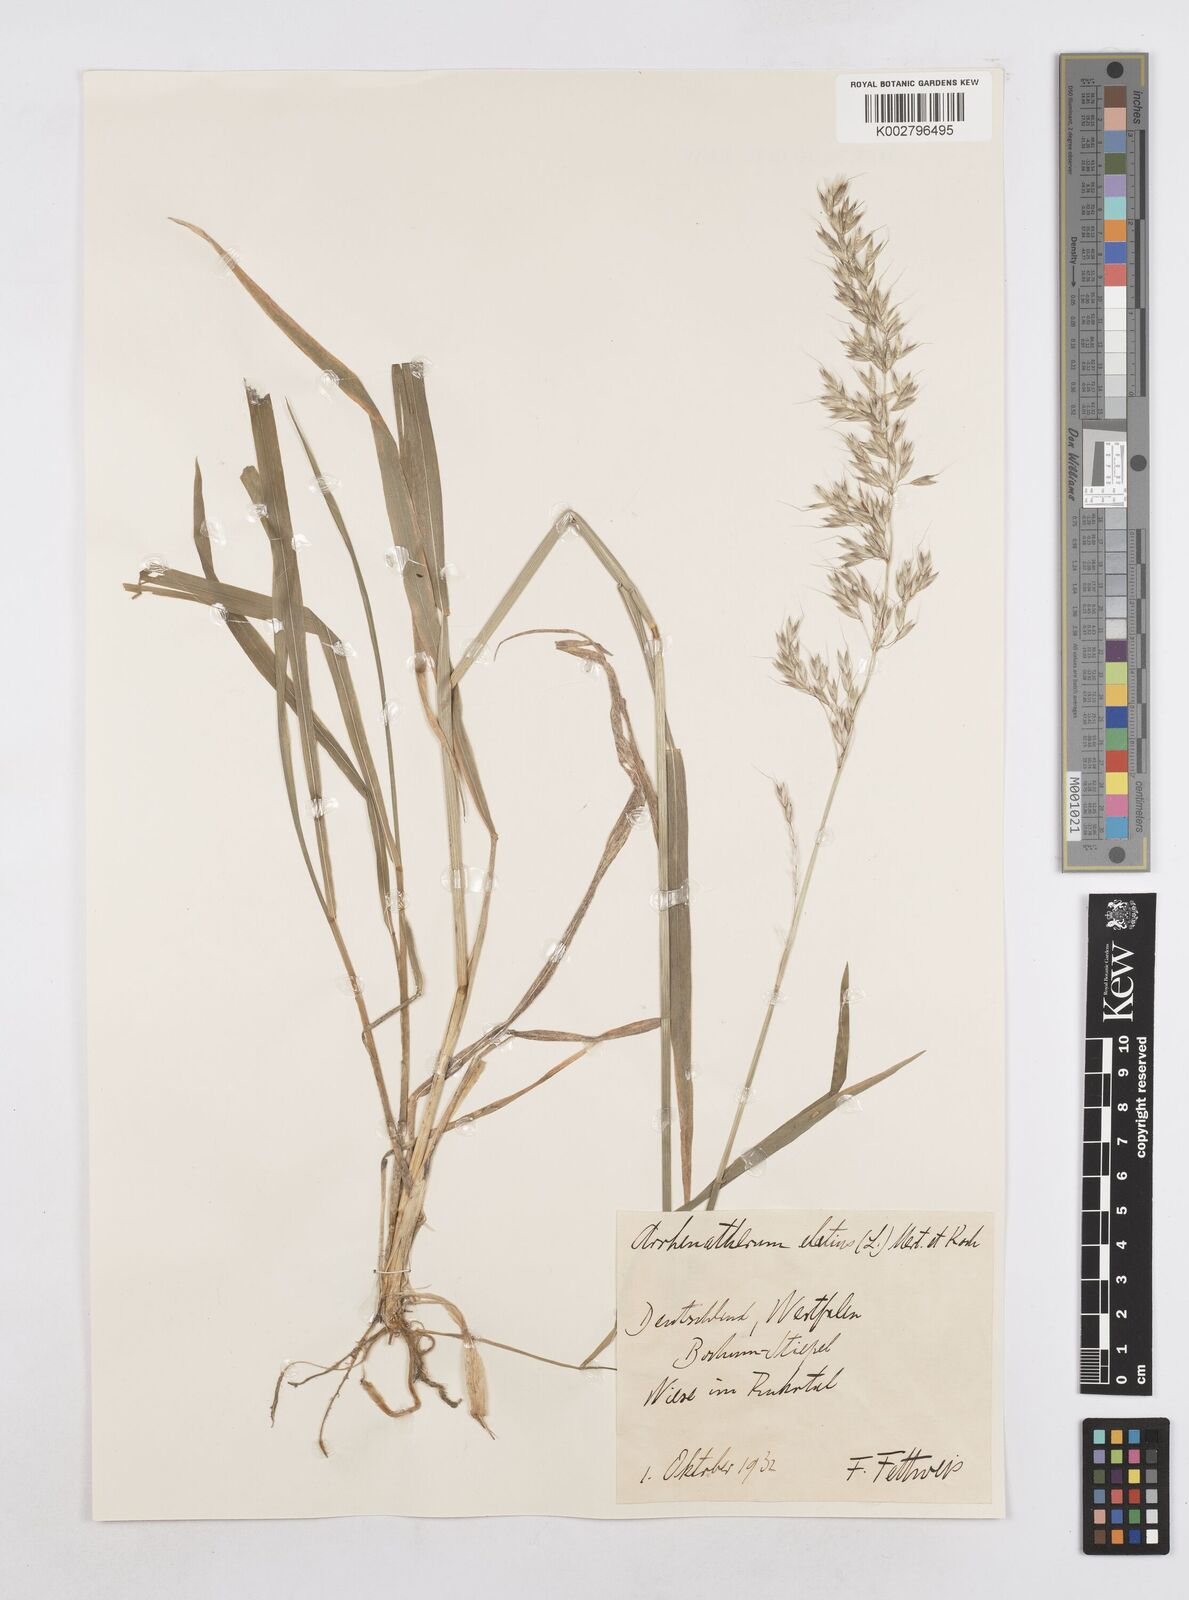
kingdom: Plantae
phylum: Tracheophyta
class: Liliopsida
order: Poales
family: Poaceae
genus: Arrhenatherum
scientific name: Arrhenatherum elatius
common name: Tall oatgrass
